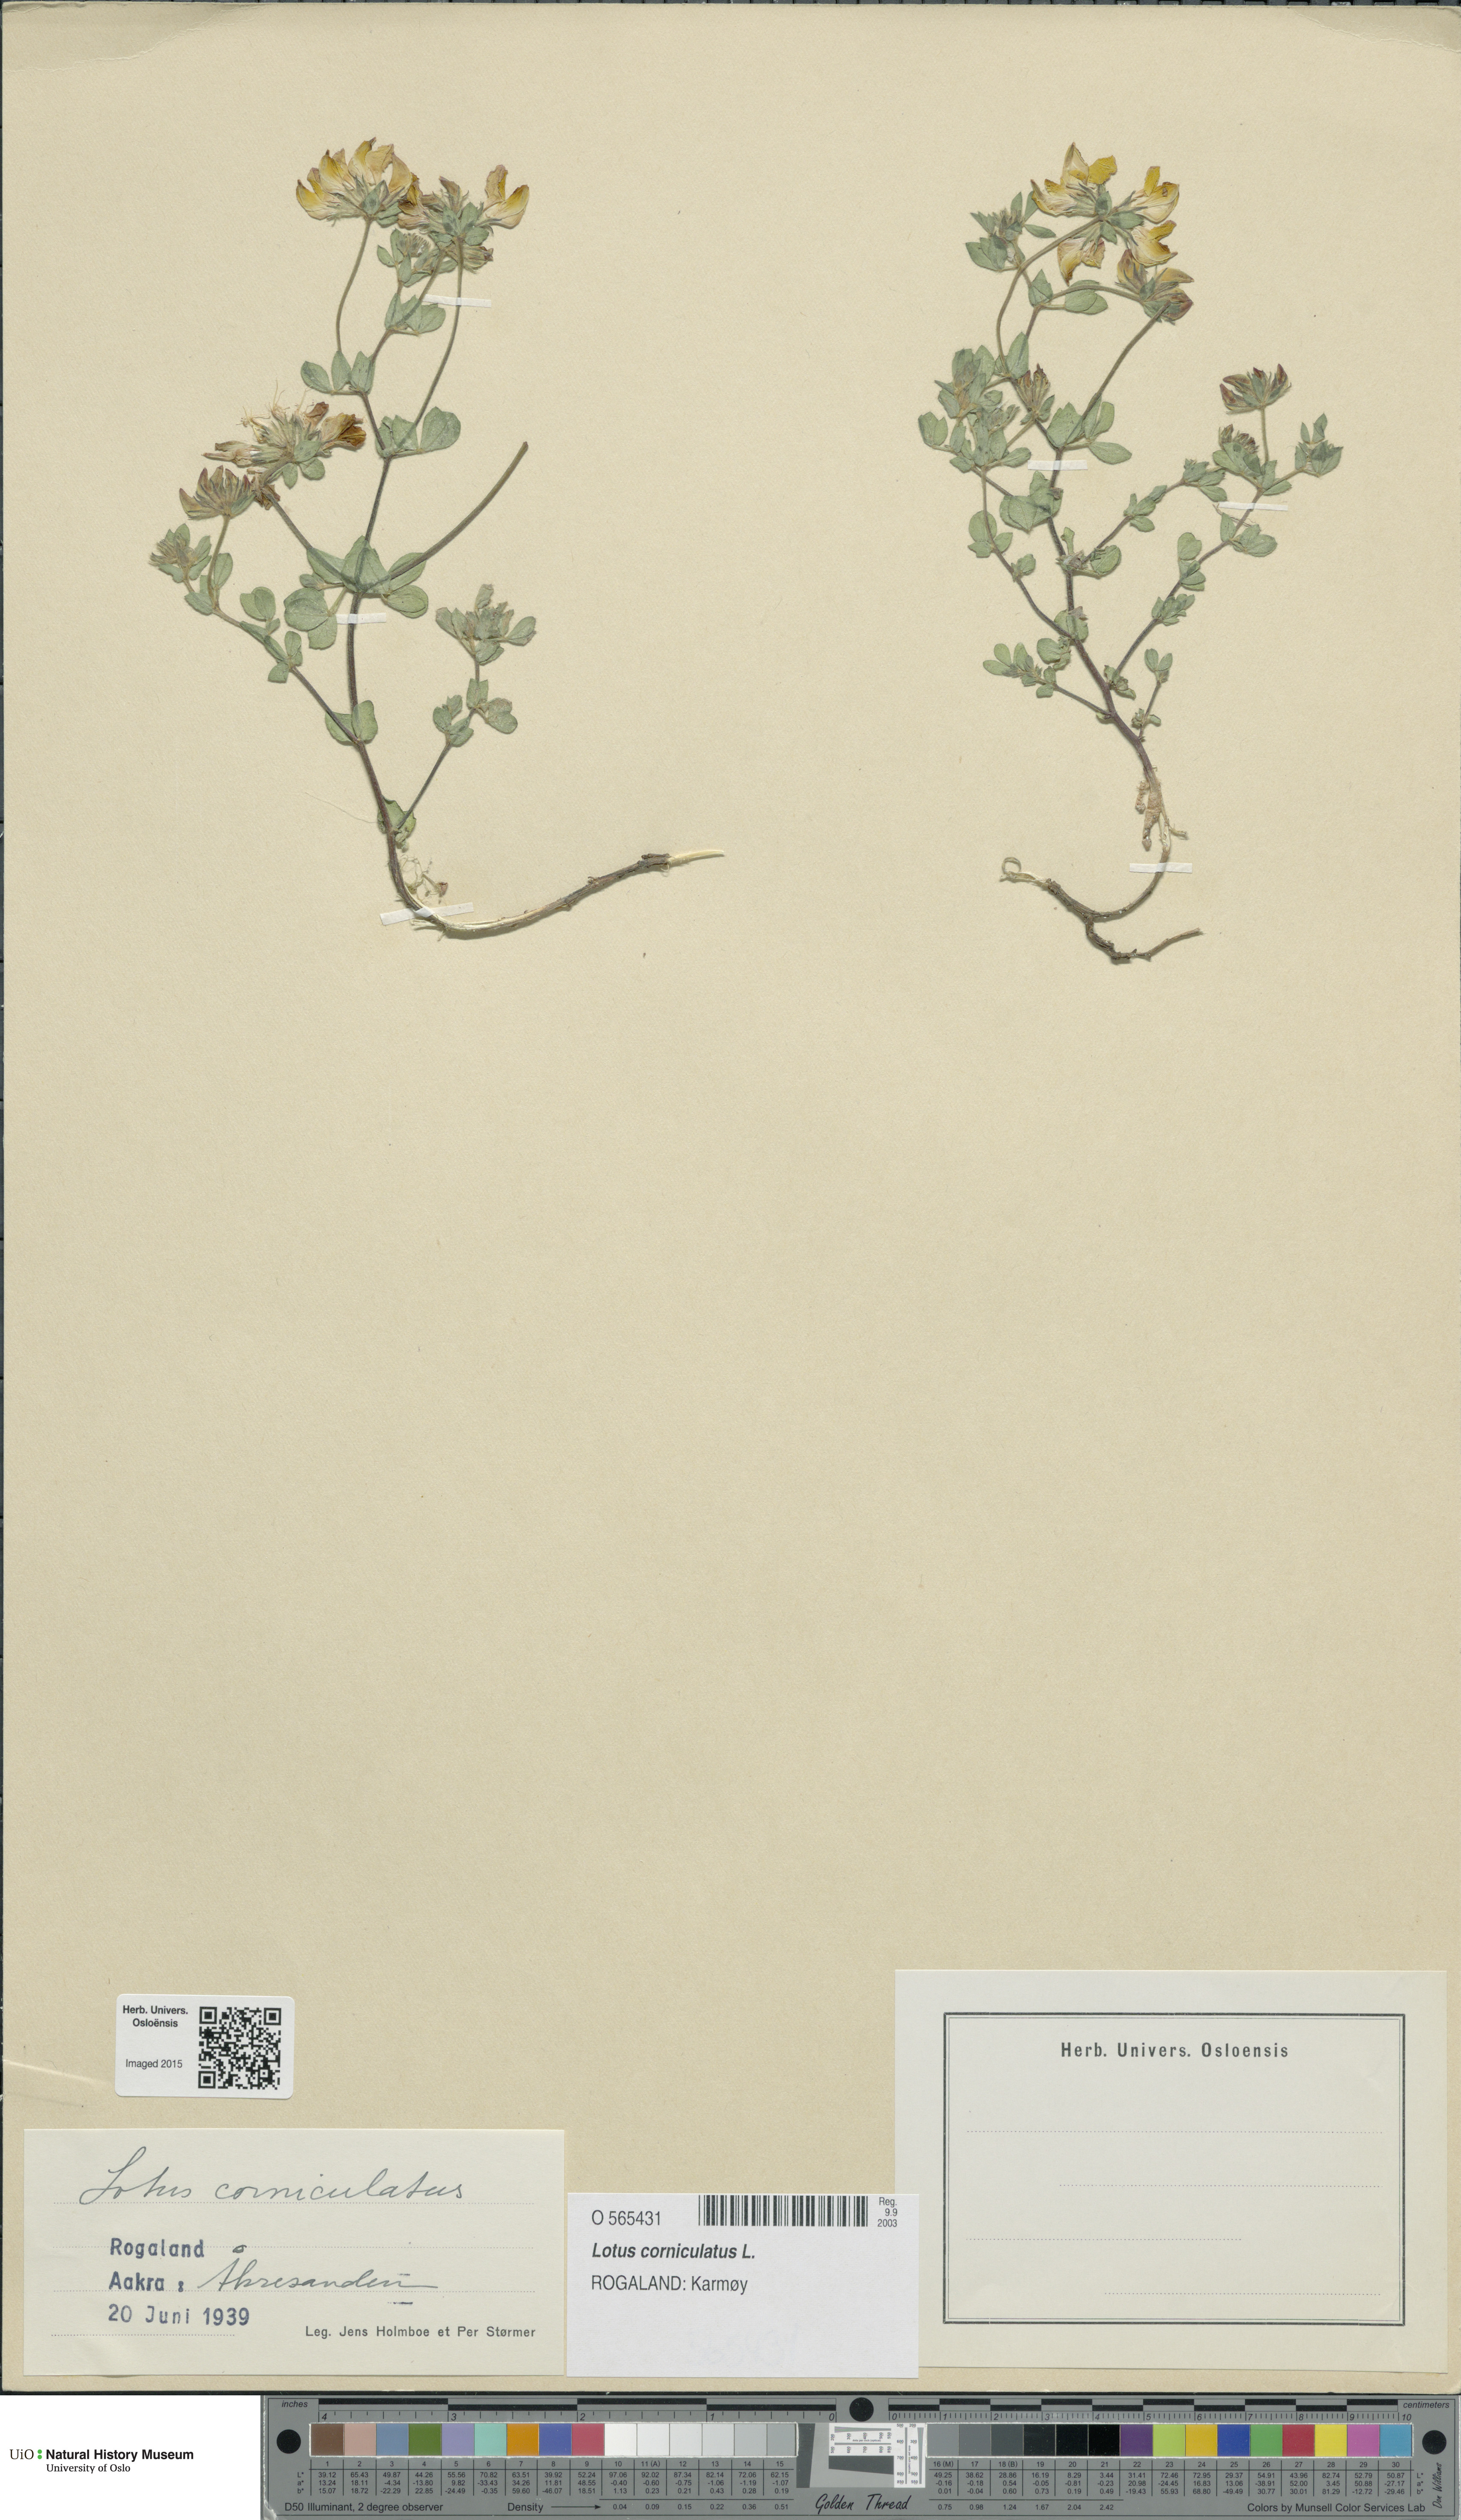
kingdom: Plantae
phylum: Tracheophyta
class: Magnoliopsida
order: Fabales
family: Fabaceae
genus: Lotus
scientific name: Lotus corniculatus
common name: Common bird's-foot-trefoil
